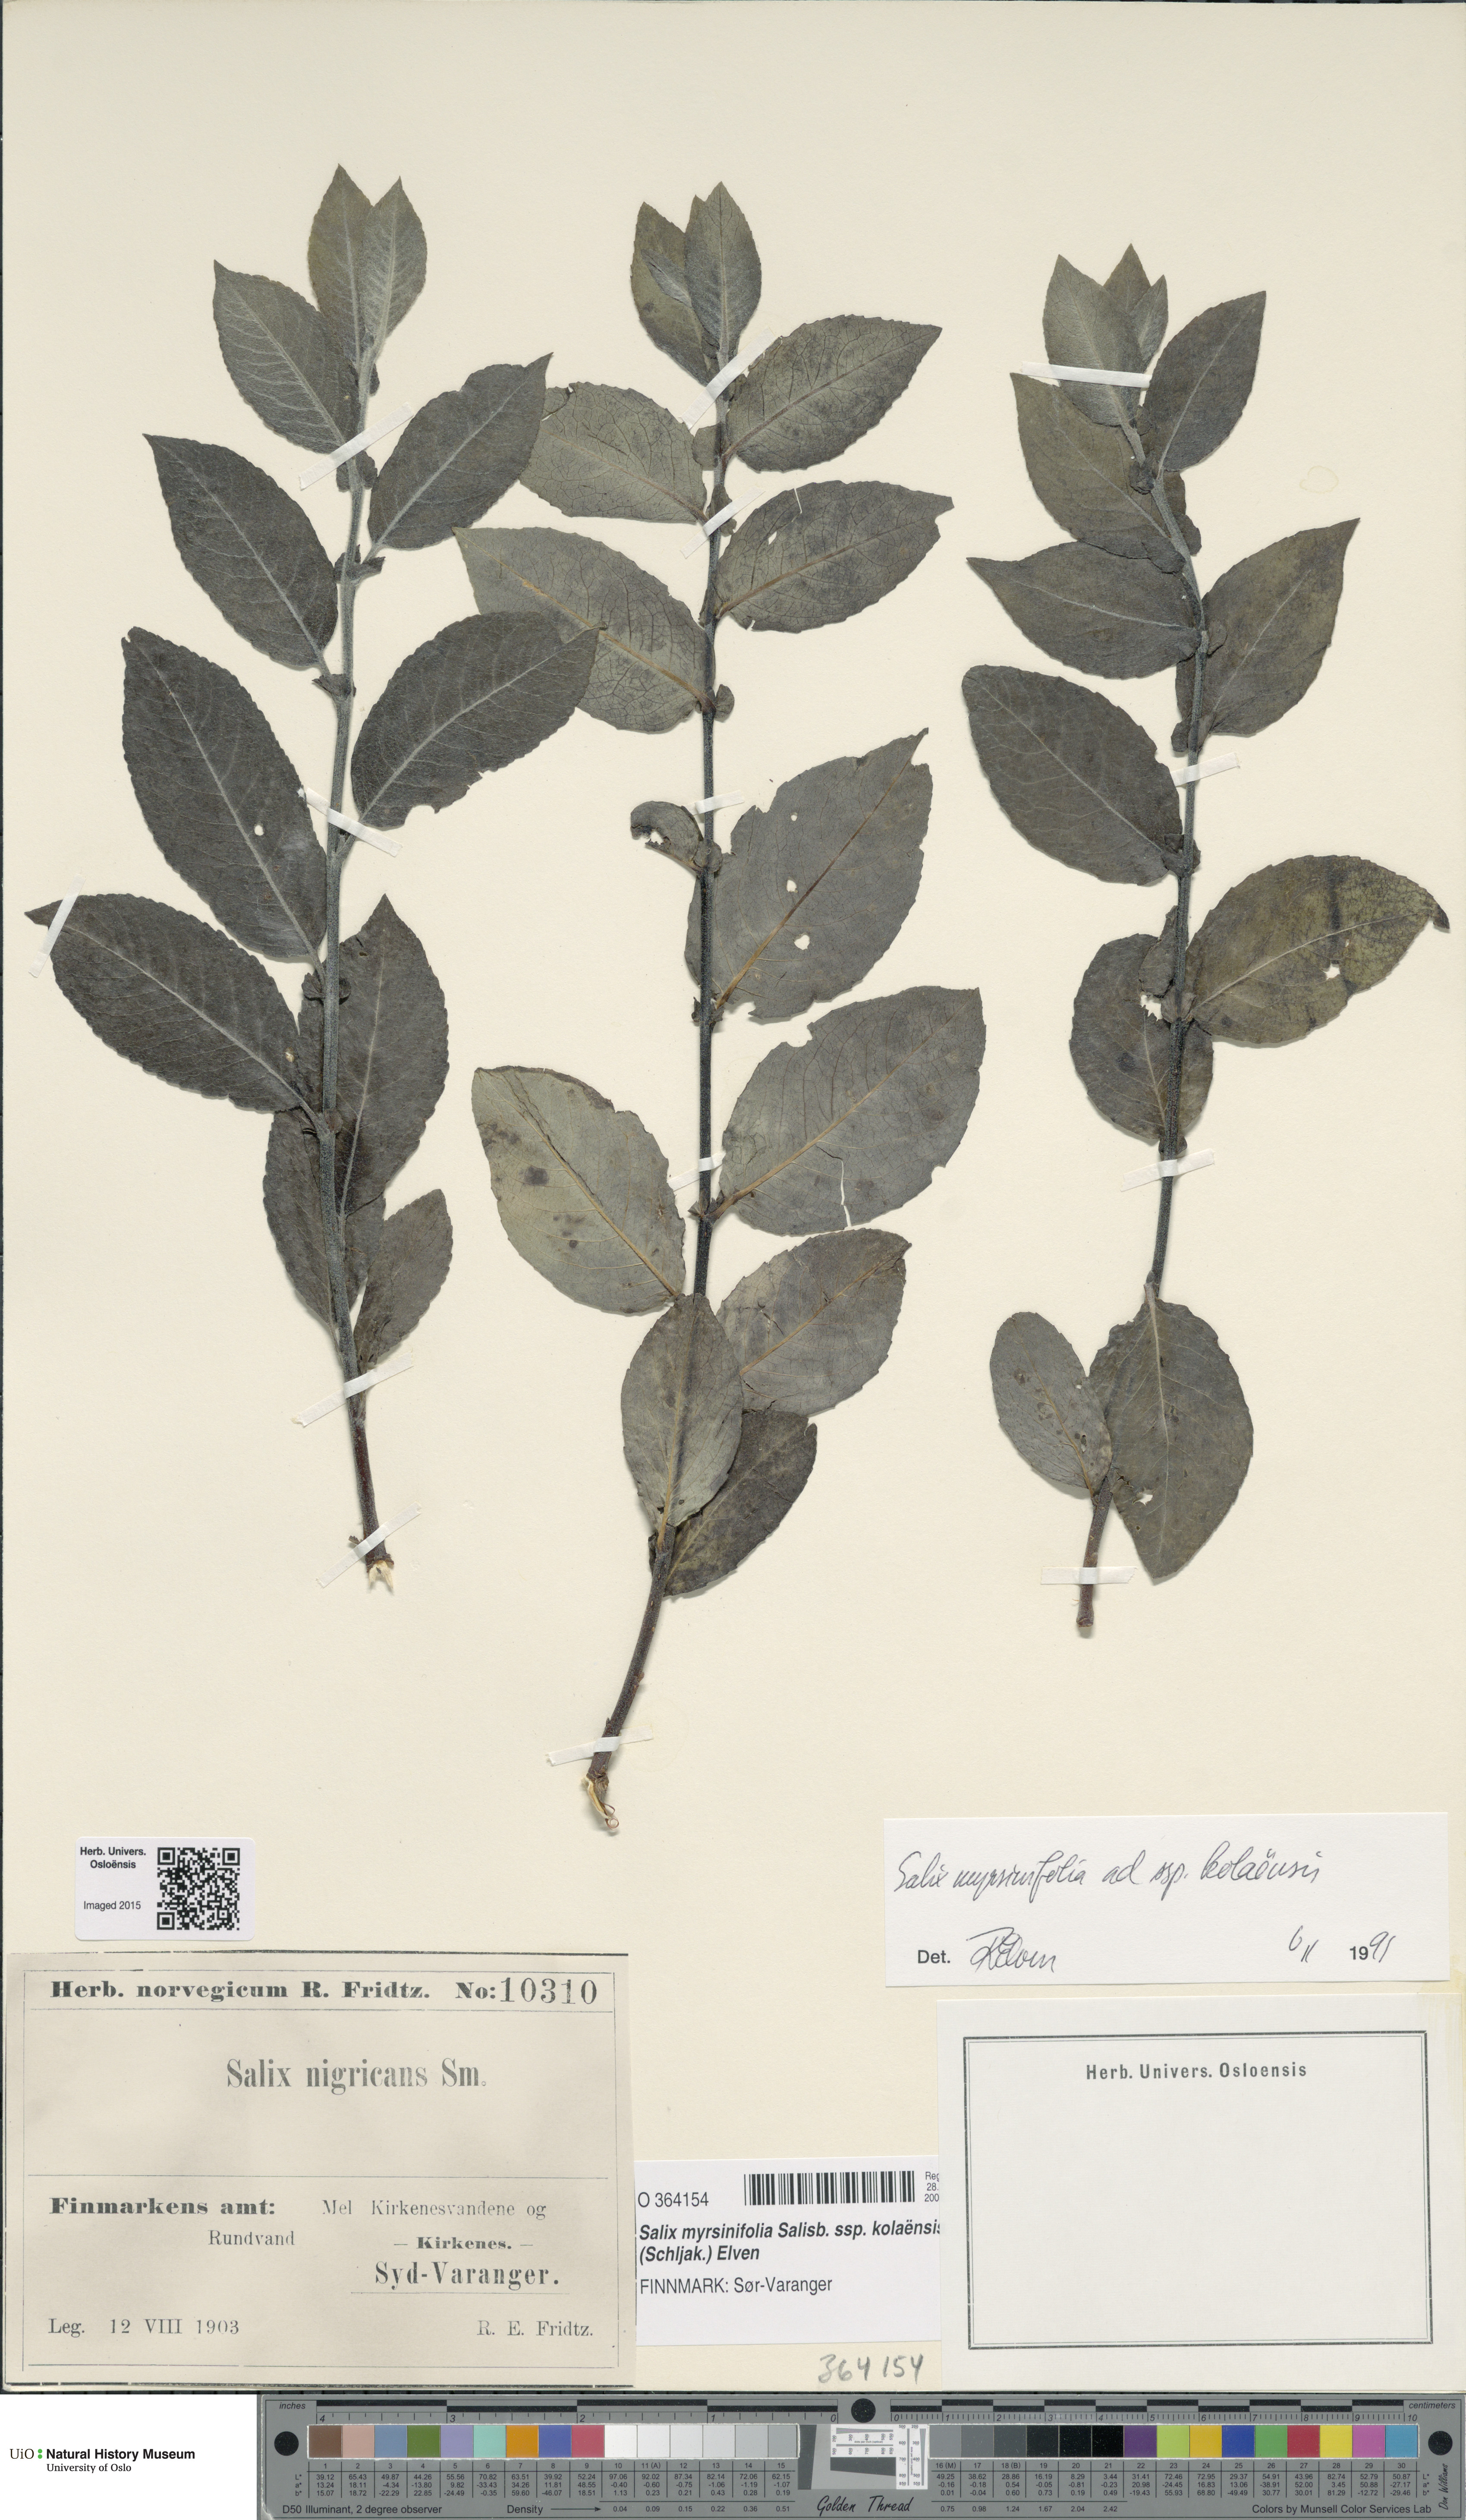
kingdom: Plantae
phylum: Tracheophyta
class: Magnoliopsida
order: Malpighiales
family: Salicaceae
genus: Salix
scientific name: Salix myrsinifolia
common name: Dark-leaved willow
